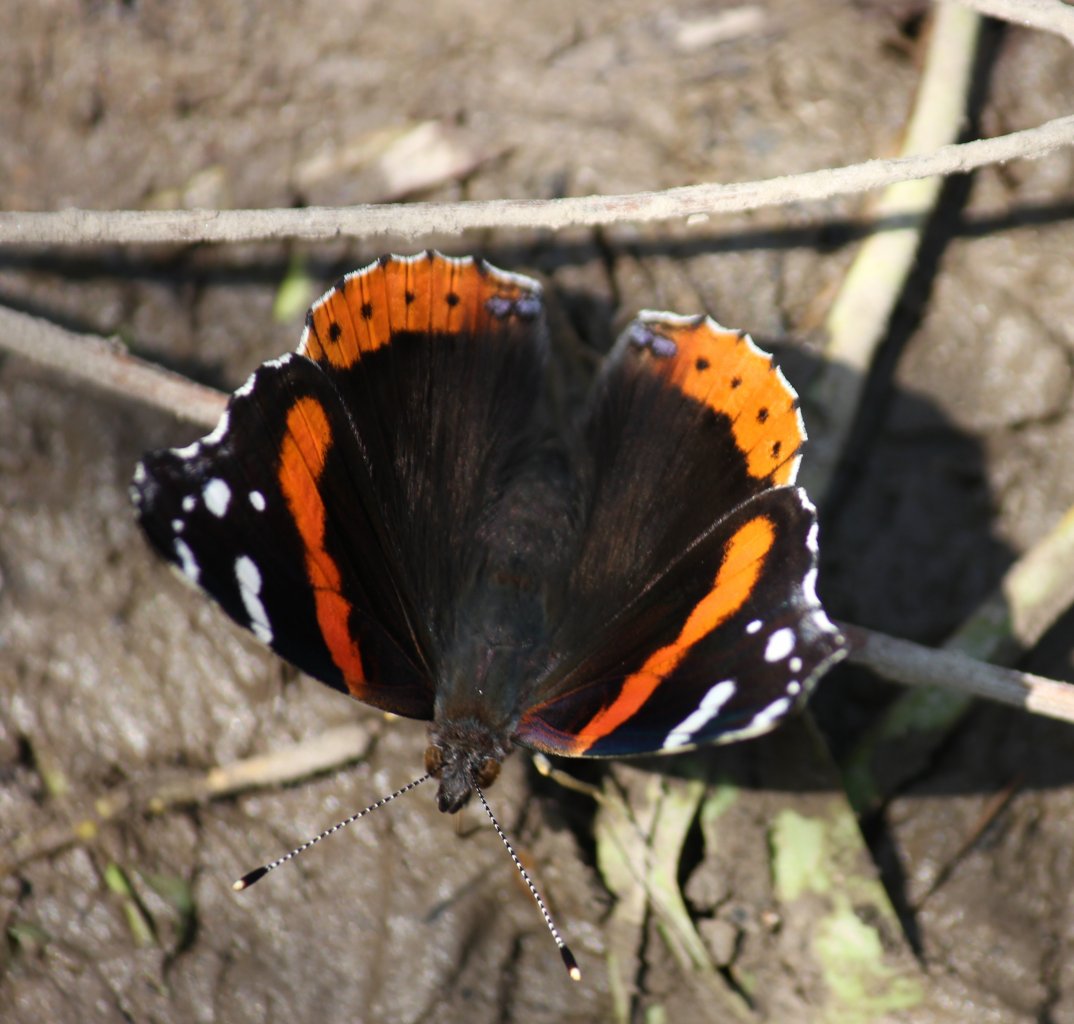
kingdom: Animalia
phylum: Arthropoda
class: Insecta
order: Lepidoptera
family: Nymphalidae
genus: Vanessa
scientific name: Vanessa atalanta
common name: Red Admiral
